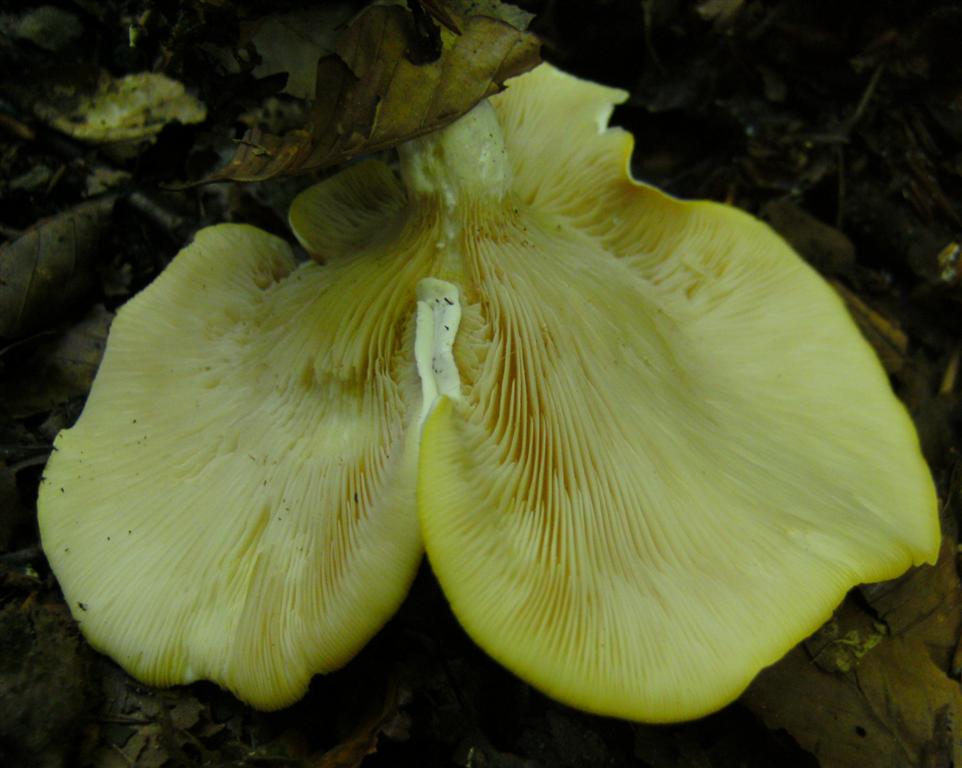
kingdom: Fungi
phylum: Basidiomycota
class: Agaricomycetes
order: Agaricales
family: Entolomataceae
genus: Clitopilus
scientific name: Clitopilus prunulus
